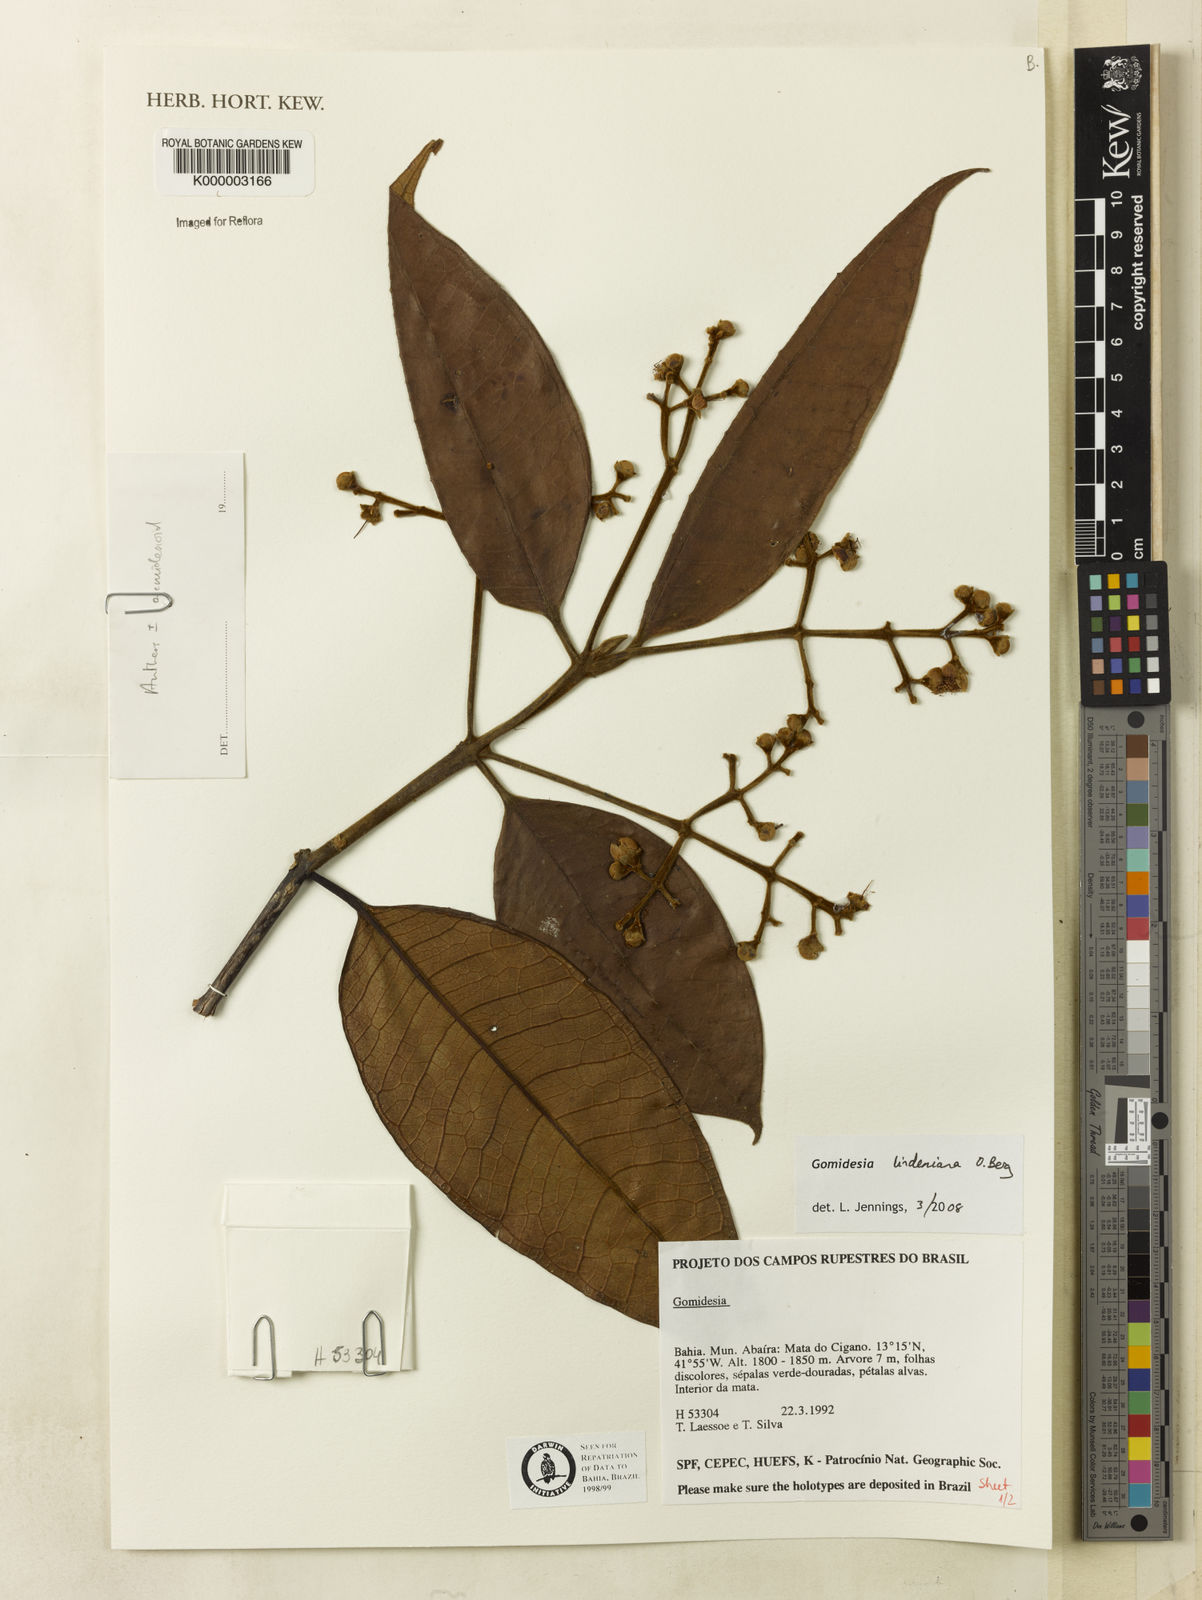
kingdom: Plantae
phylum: Tracheophyta
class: Magnoliopsida
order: Myrtales
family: Myrtaceae
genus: Myrcia
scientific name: Myrcia
